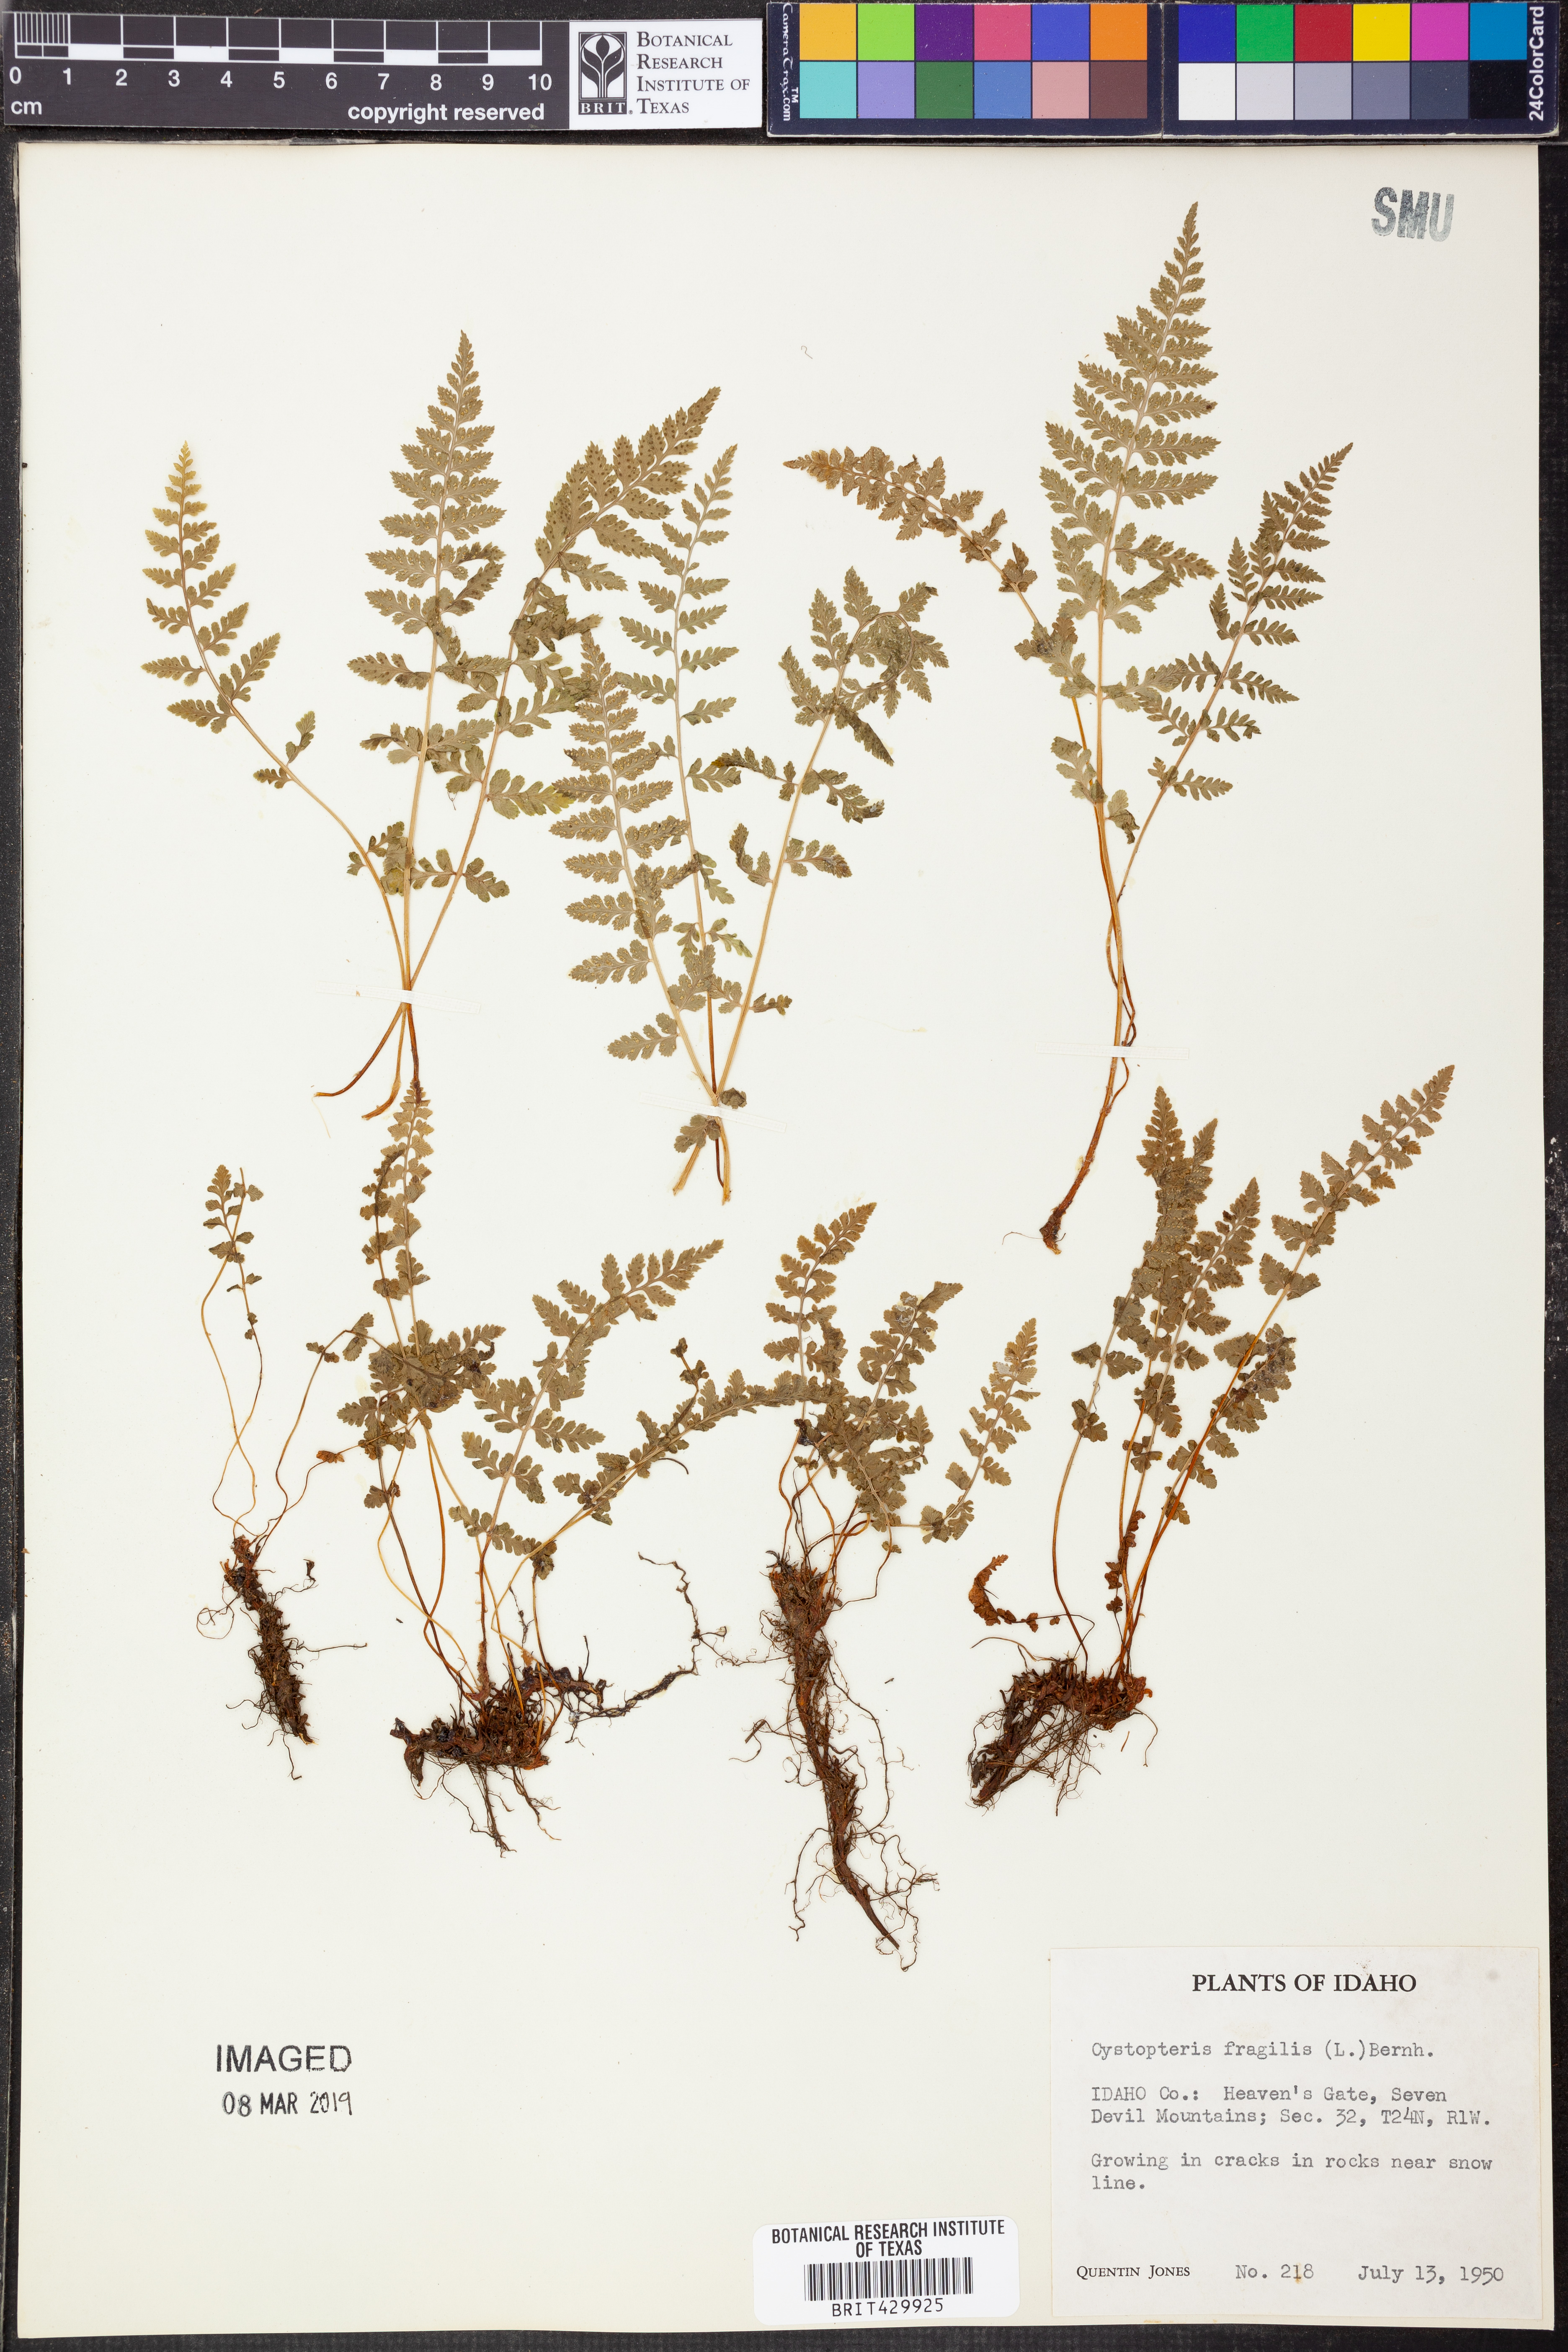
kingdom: Plantae
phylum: Tracheophyta
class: Polypodiopsida
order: Polypodiales
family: Cystopteridaceae
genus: Cystopteris
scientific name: Cystopteris fragilis
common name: Brittle bladder fern
